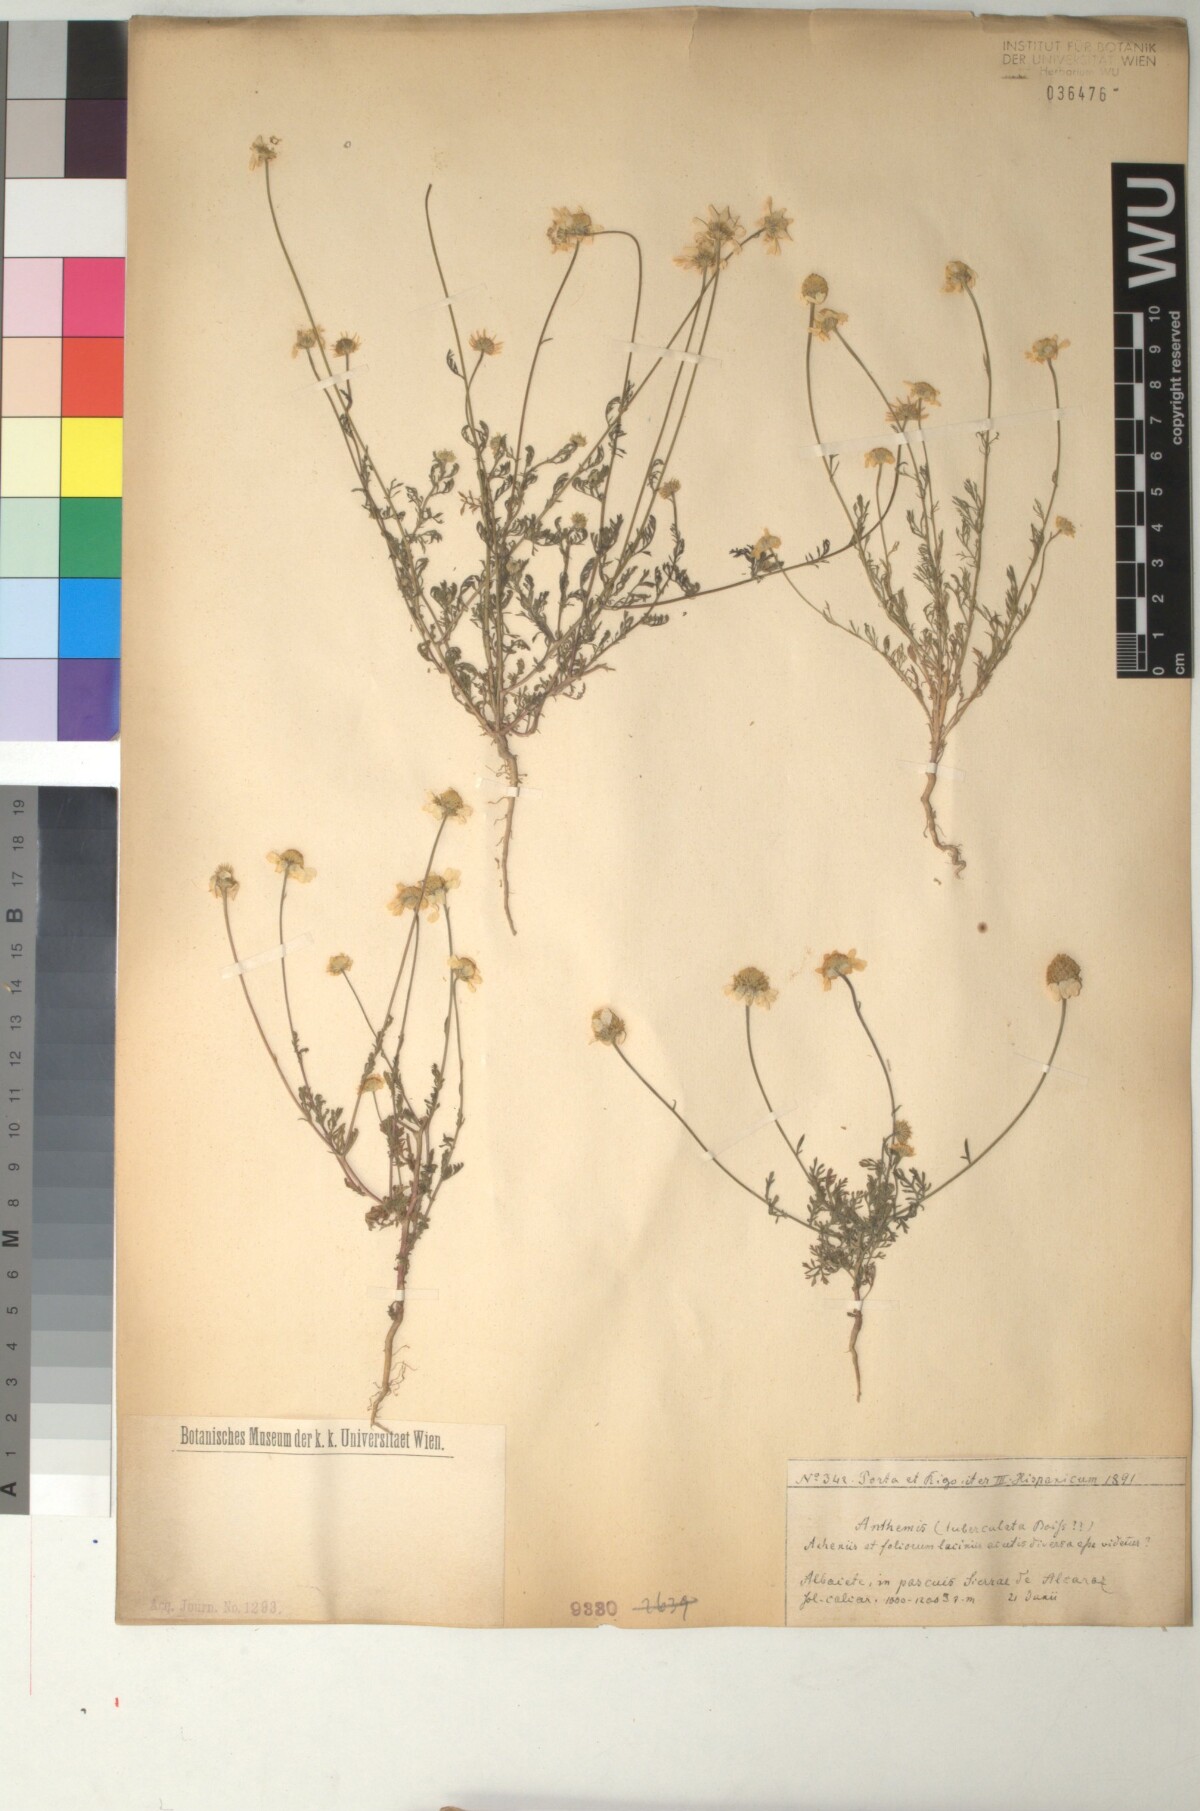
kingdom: Plantae
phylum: Tracheophyta
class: Magnoliopsida
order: Asterales
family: Asteraceae
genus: Anthemis
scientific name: Anthemis pedunculata
